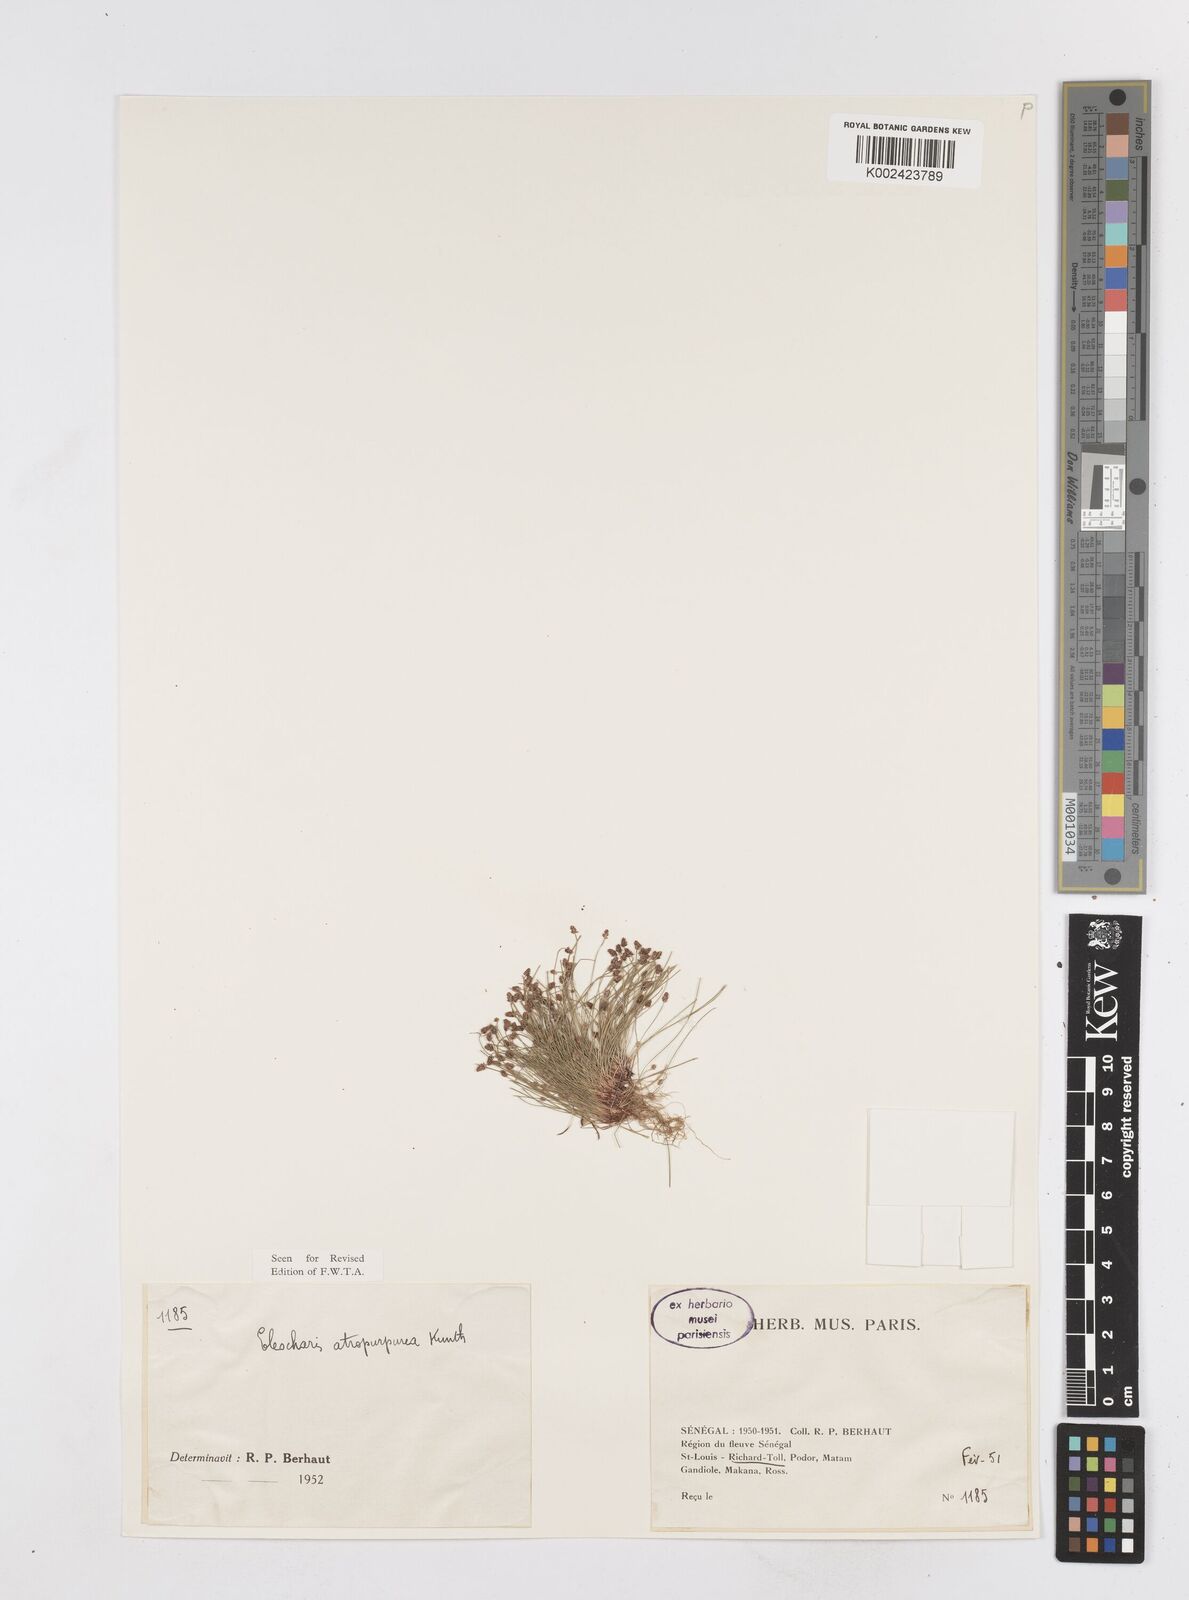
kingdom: Plantae
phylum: Tracheophyta
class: Liliopsida
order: Poales
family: Cyperaceae
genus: Eleocharis
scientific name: Eleocharis atropurpurea
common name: Purple spikerush
